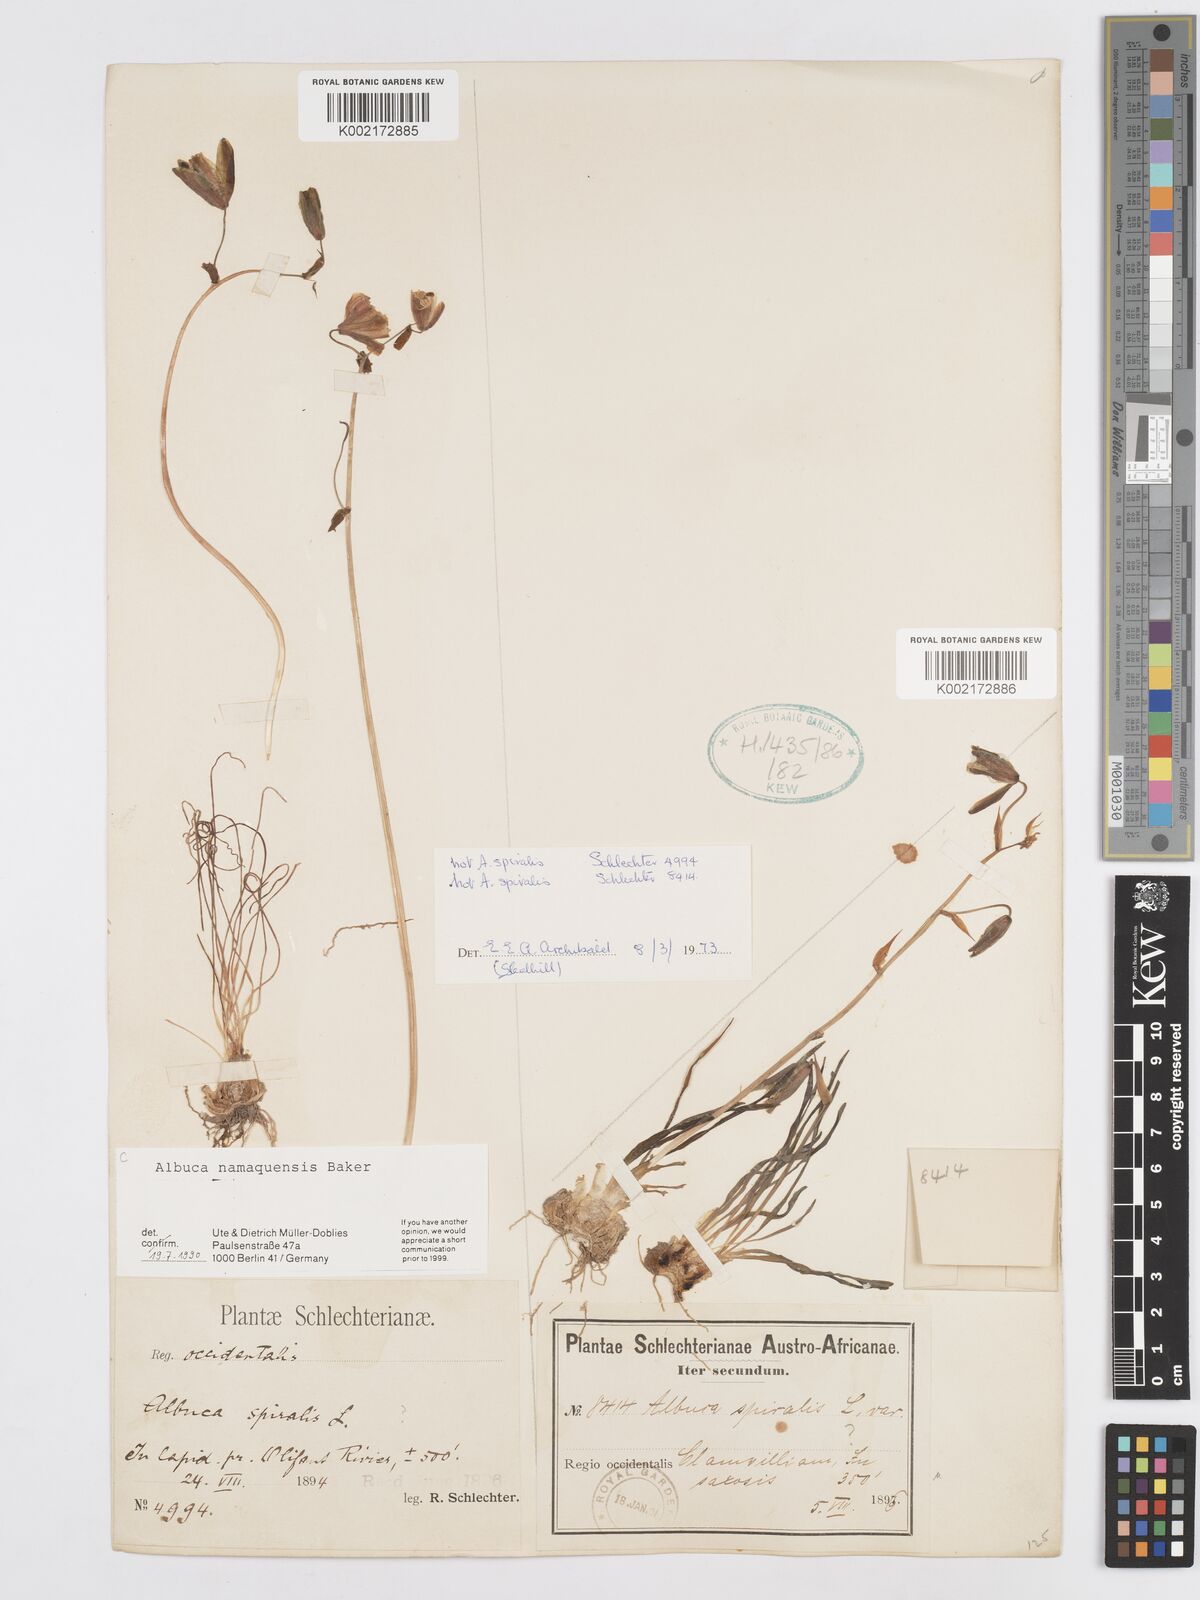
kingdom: Plantae
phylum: Tracheophyta
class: Liliopsida
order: Asparagales
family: Asparagaceae
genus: Albuca
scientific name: Albuca namaquensis
